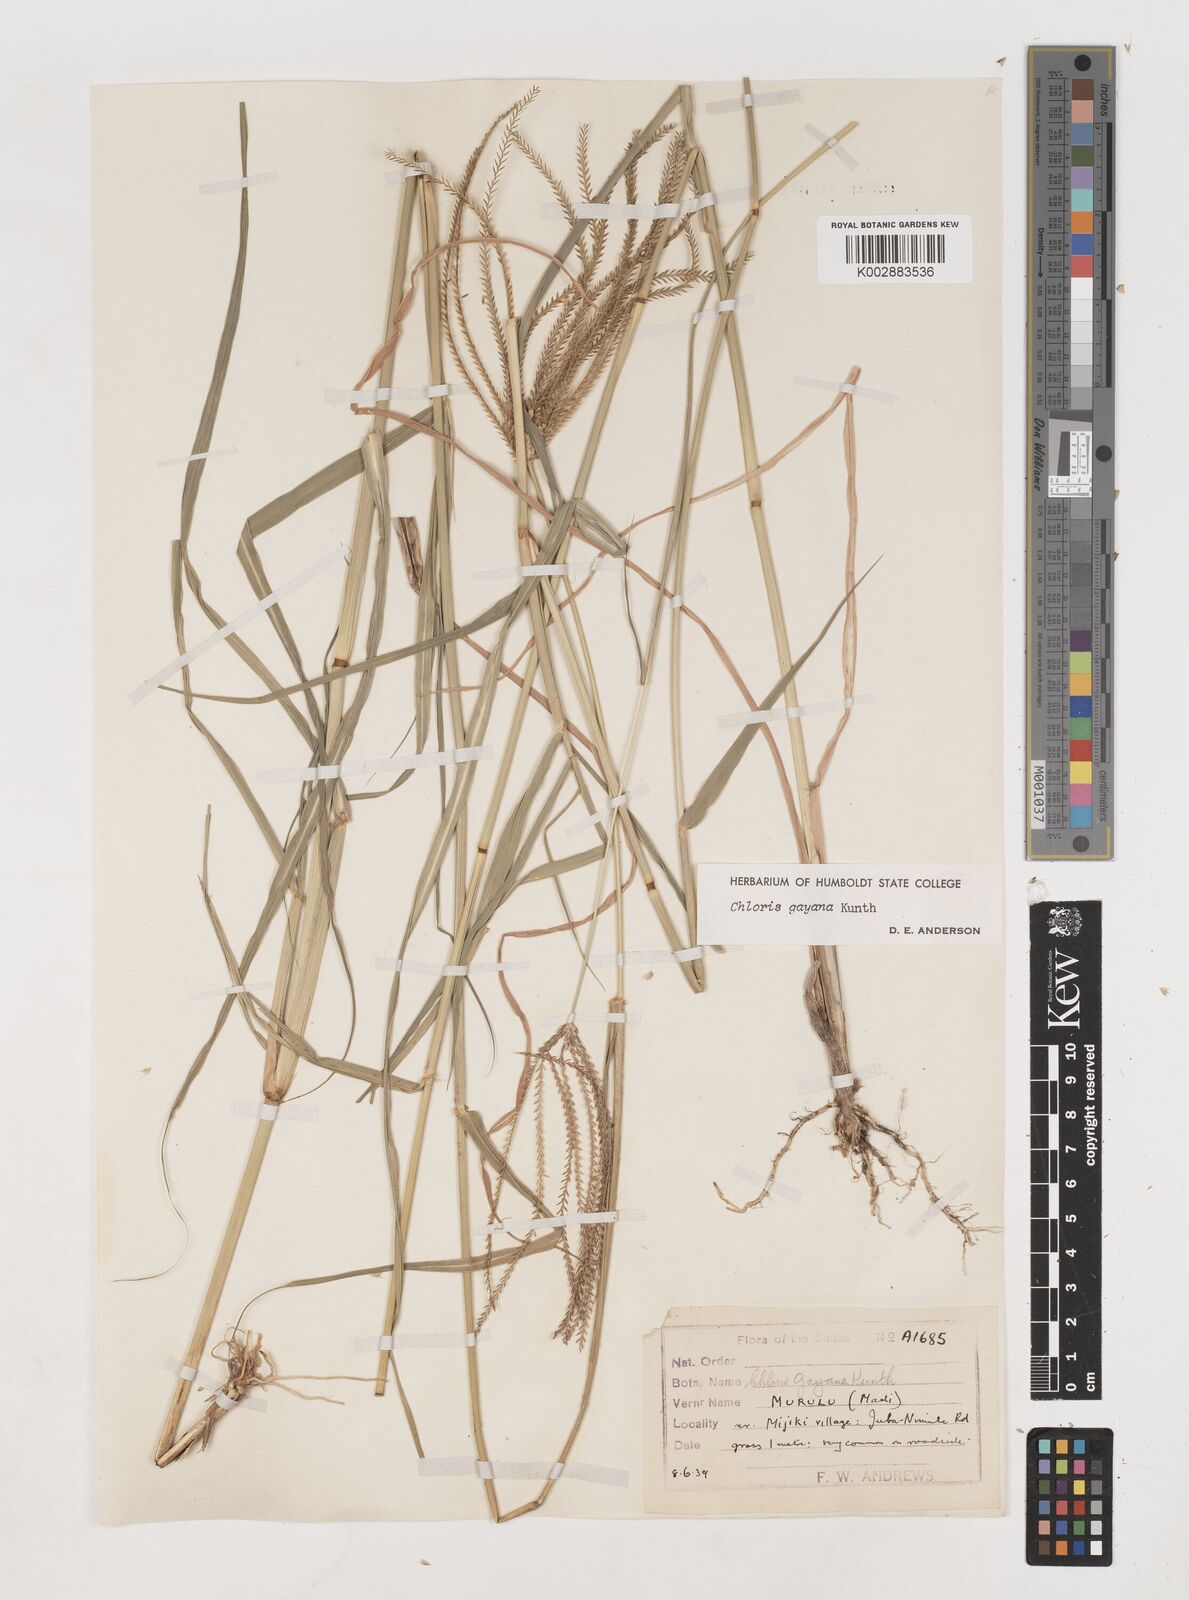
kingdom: Plantae
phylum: Tracheophyta
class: Liliopsida
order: Poales
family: Poaceae
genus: Chloris
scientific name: Chloris gayana
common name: Rhodes grass
